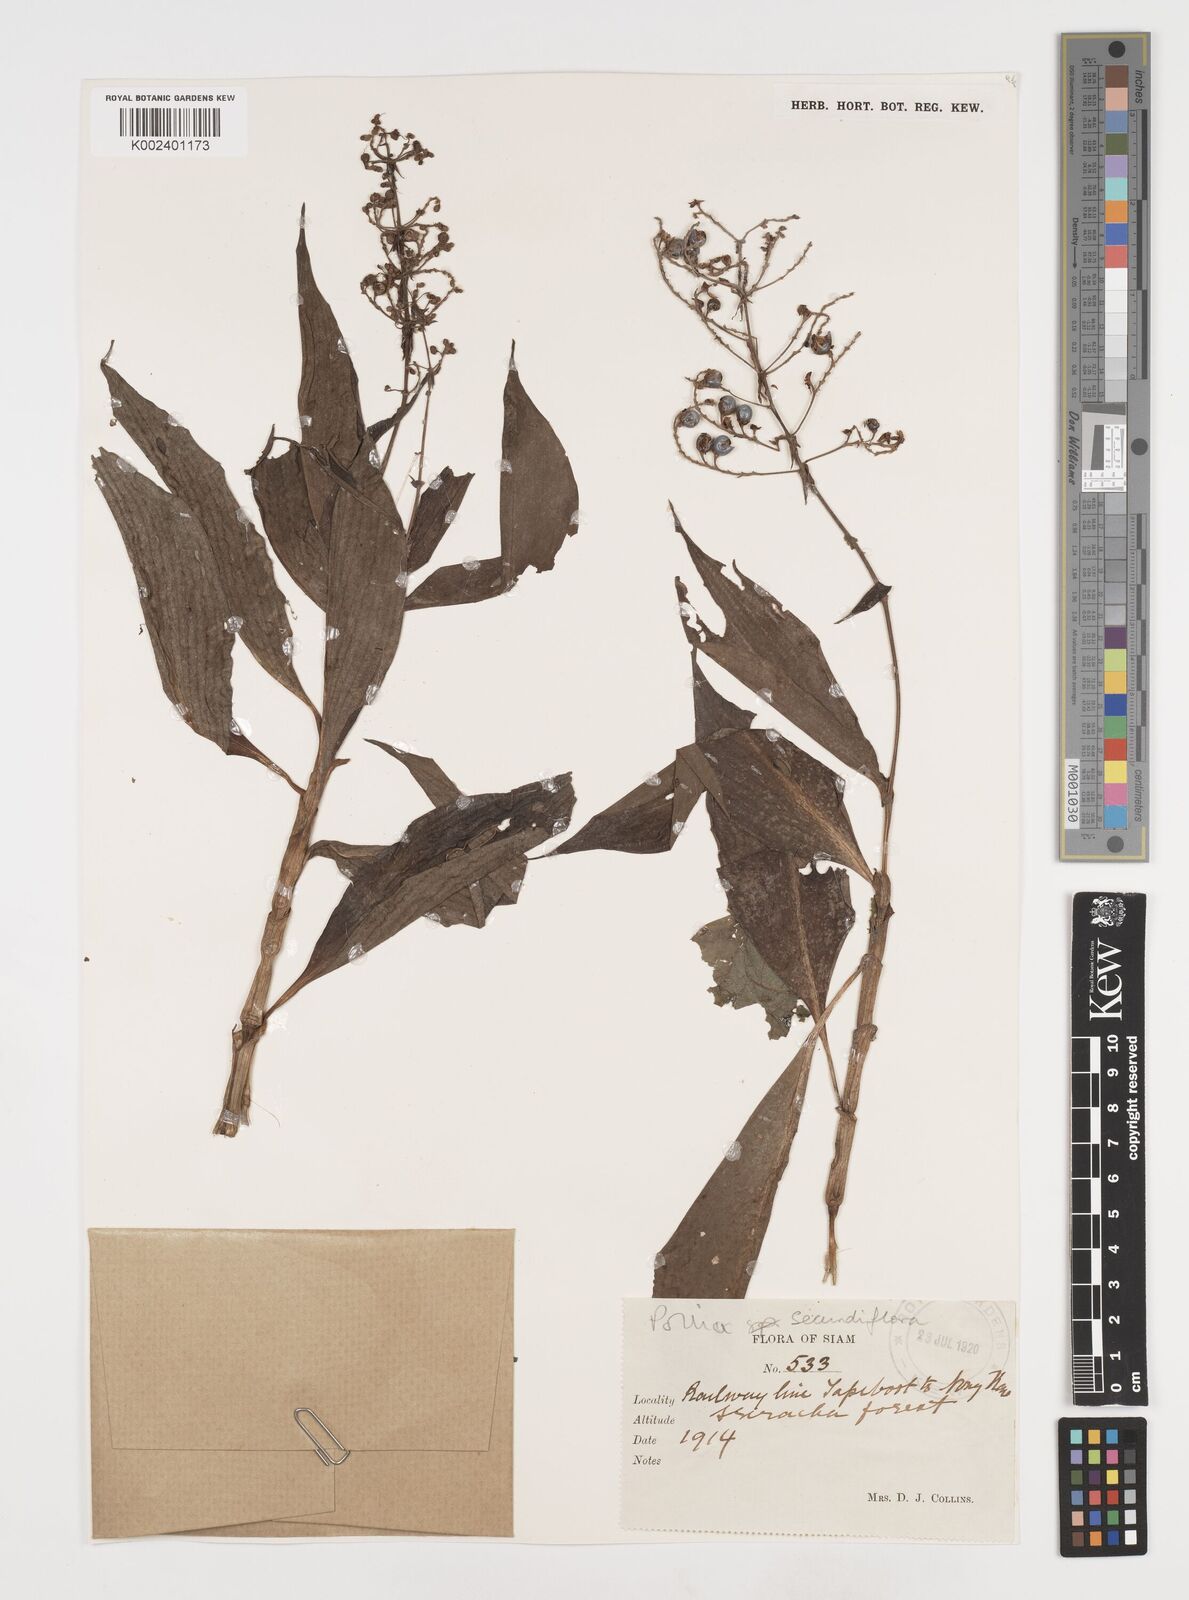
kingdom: Plantae
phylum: Tracheophyta
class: Liliopsida
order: Commelinales
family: Commelinaceae
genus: Pollia
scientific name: Pollia secundiflora
